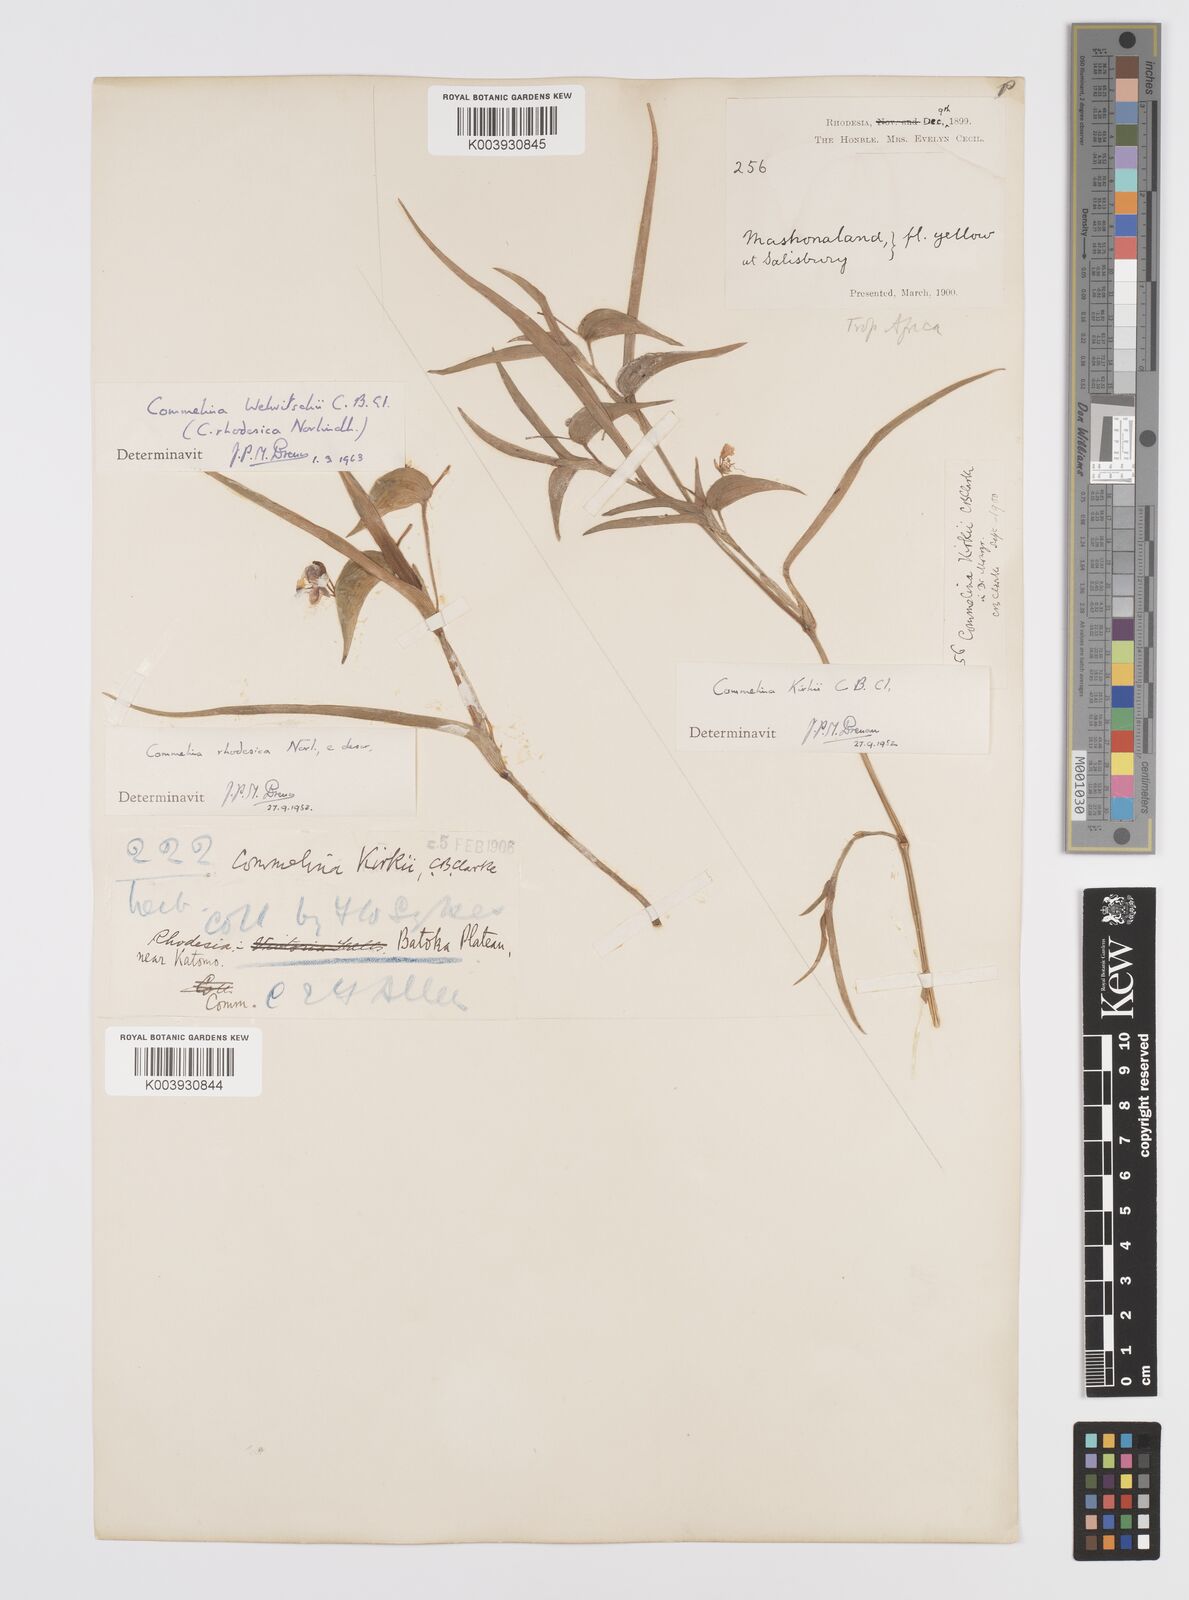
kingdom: Plantae
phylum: Tracheophyta
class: Liliopsida
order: Commelinales
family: Commelinaceae
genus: Commelina
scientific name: Commelina welwitschii
